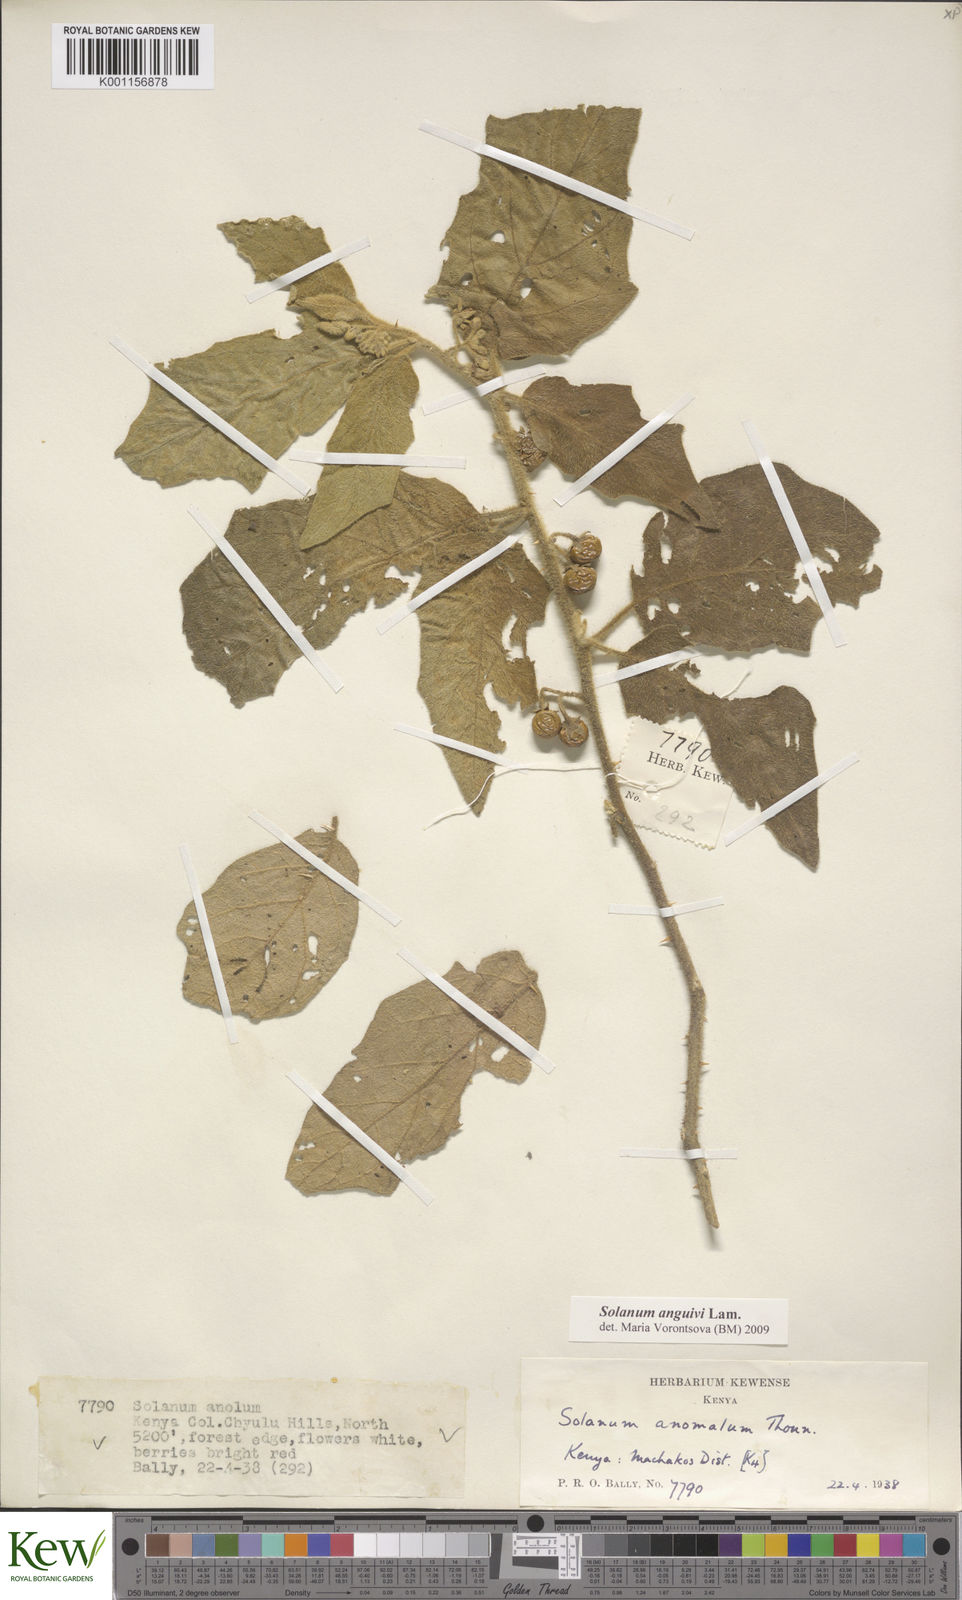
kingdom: Plantae
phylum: Tracheophyta
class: Magnoliopsida
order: Solanales
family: Solanaceae
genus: Solanum
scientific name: Solanum anguivi
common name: Forest bitterberry
